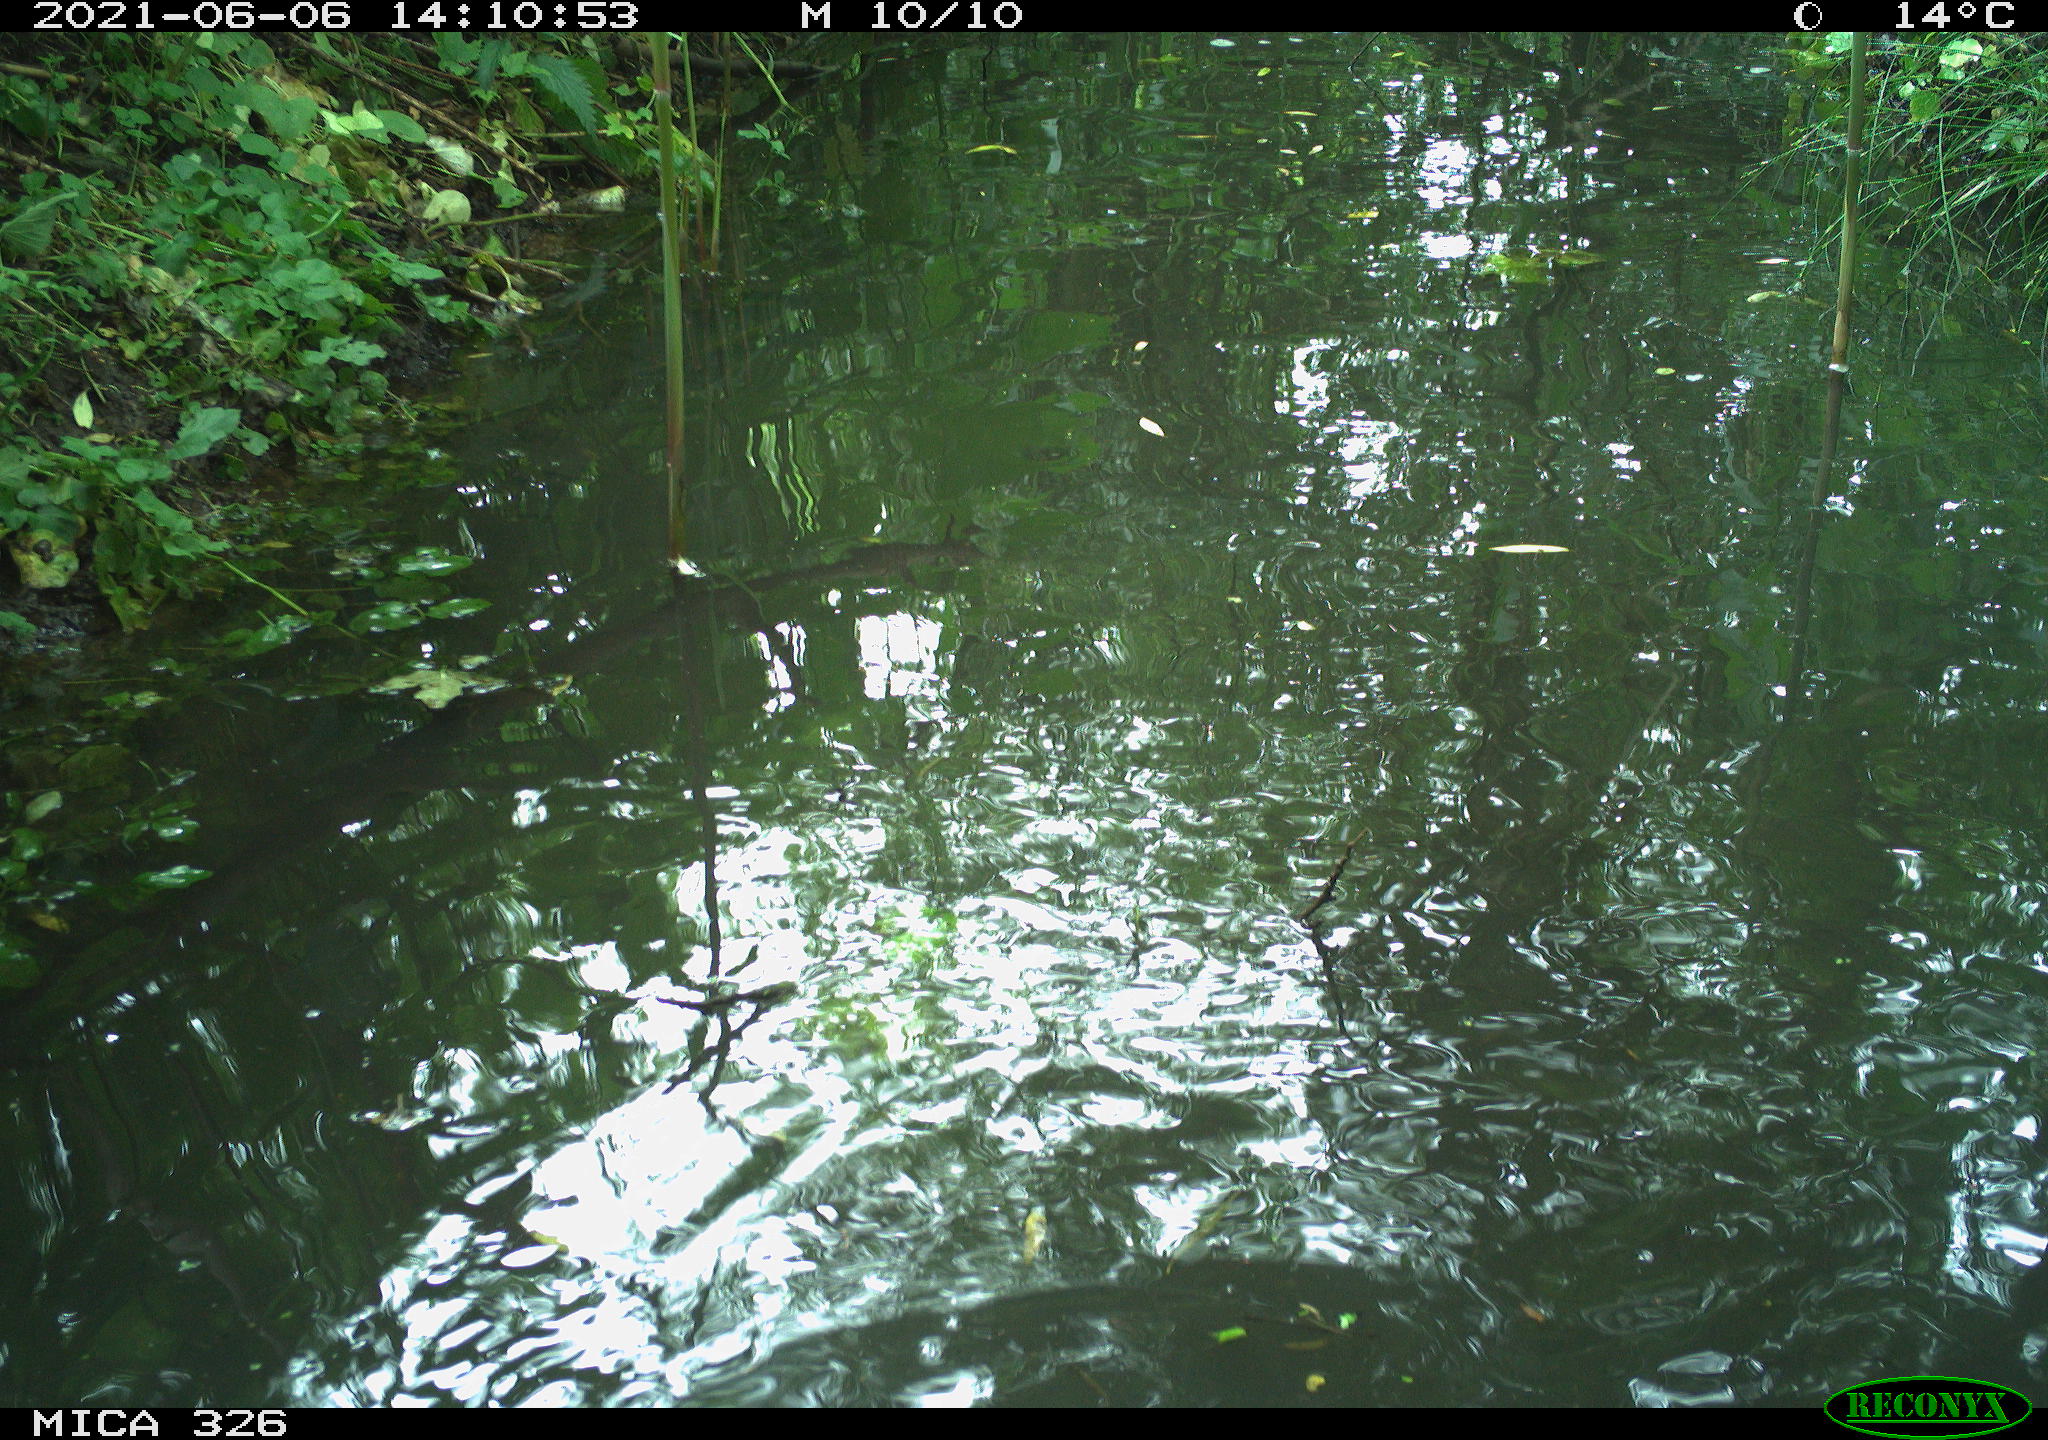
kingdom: Animalia
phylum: Chordata
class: Aves
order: Anseriformes
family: Anatidae
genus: Anas
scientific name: Anas platyrhynchos
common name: Mallard
